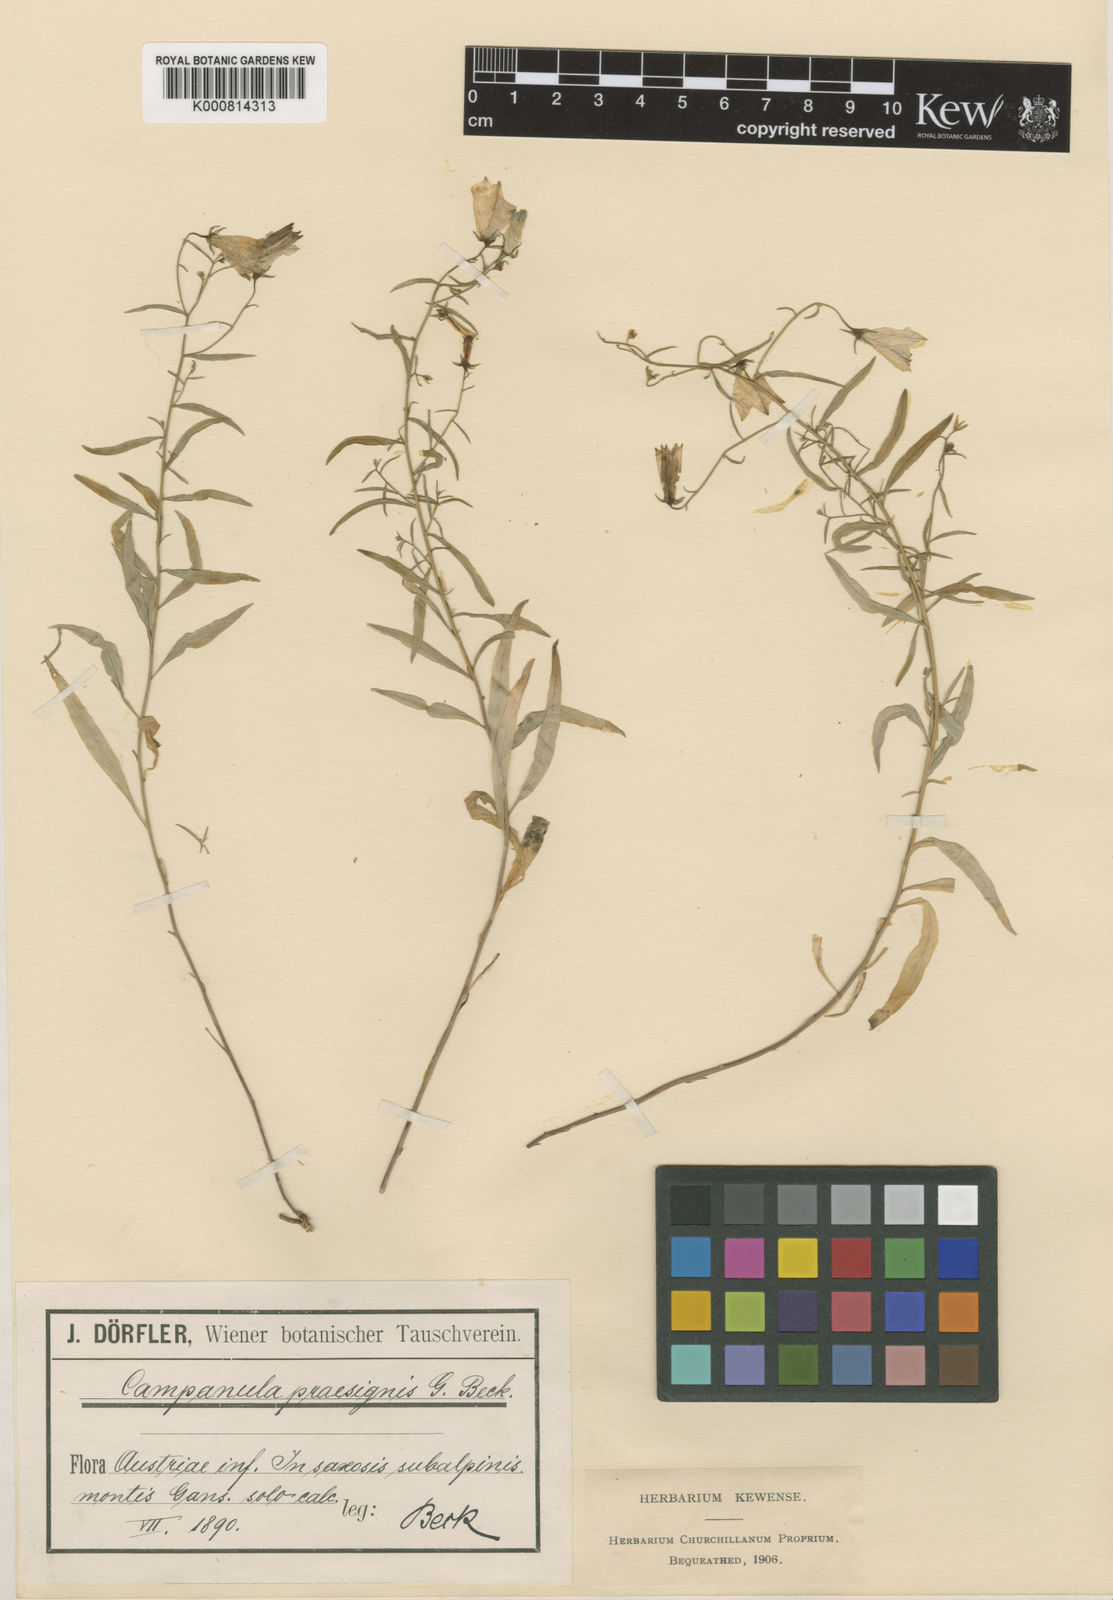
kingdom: Plantae
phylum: Tracheophyta
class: Magnoliopsida
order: Asterales
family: Campanulaceae
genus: Campanula
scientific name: Campanula praesignis
